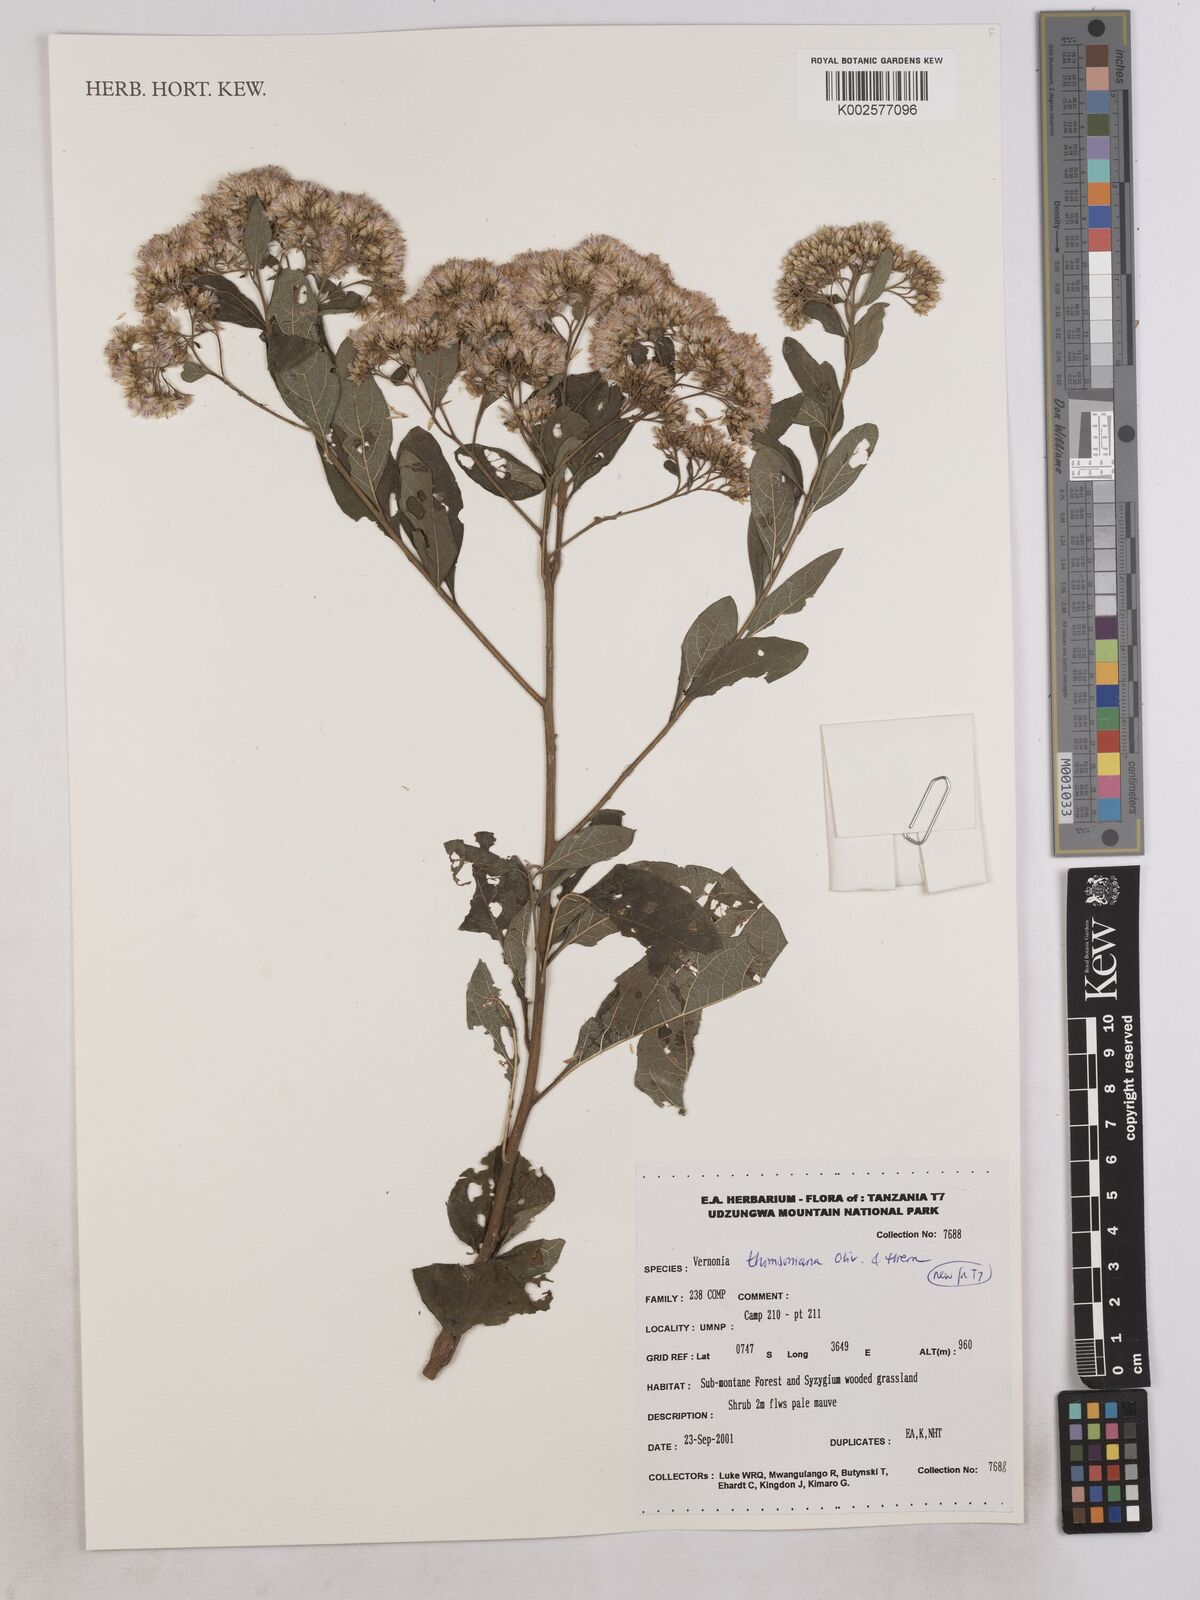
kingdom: Plantae
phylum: Tracheophyta
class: Magnoliopsida
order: Asterales
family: Asteraceae
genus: Gymnanthemum
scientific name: Gymnanthemum thomsonianum
